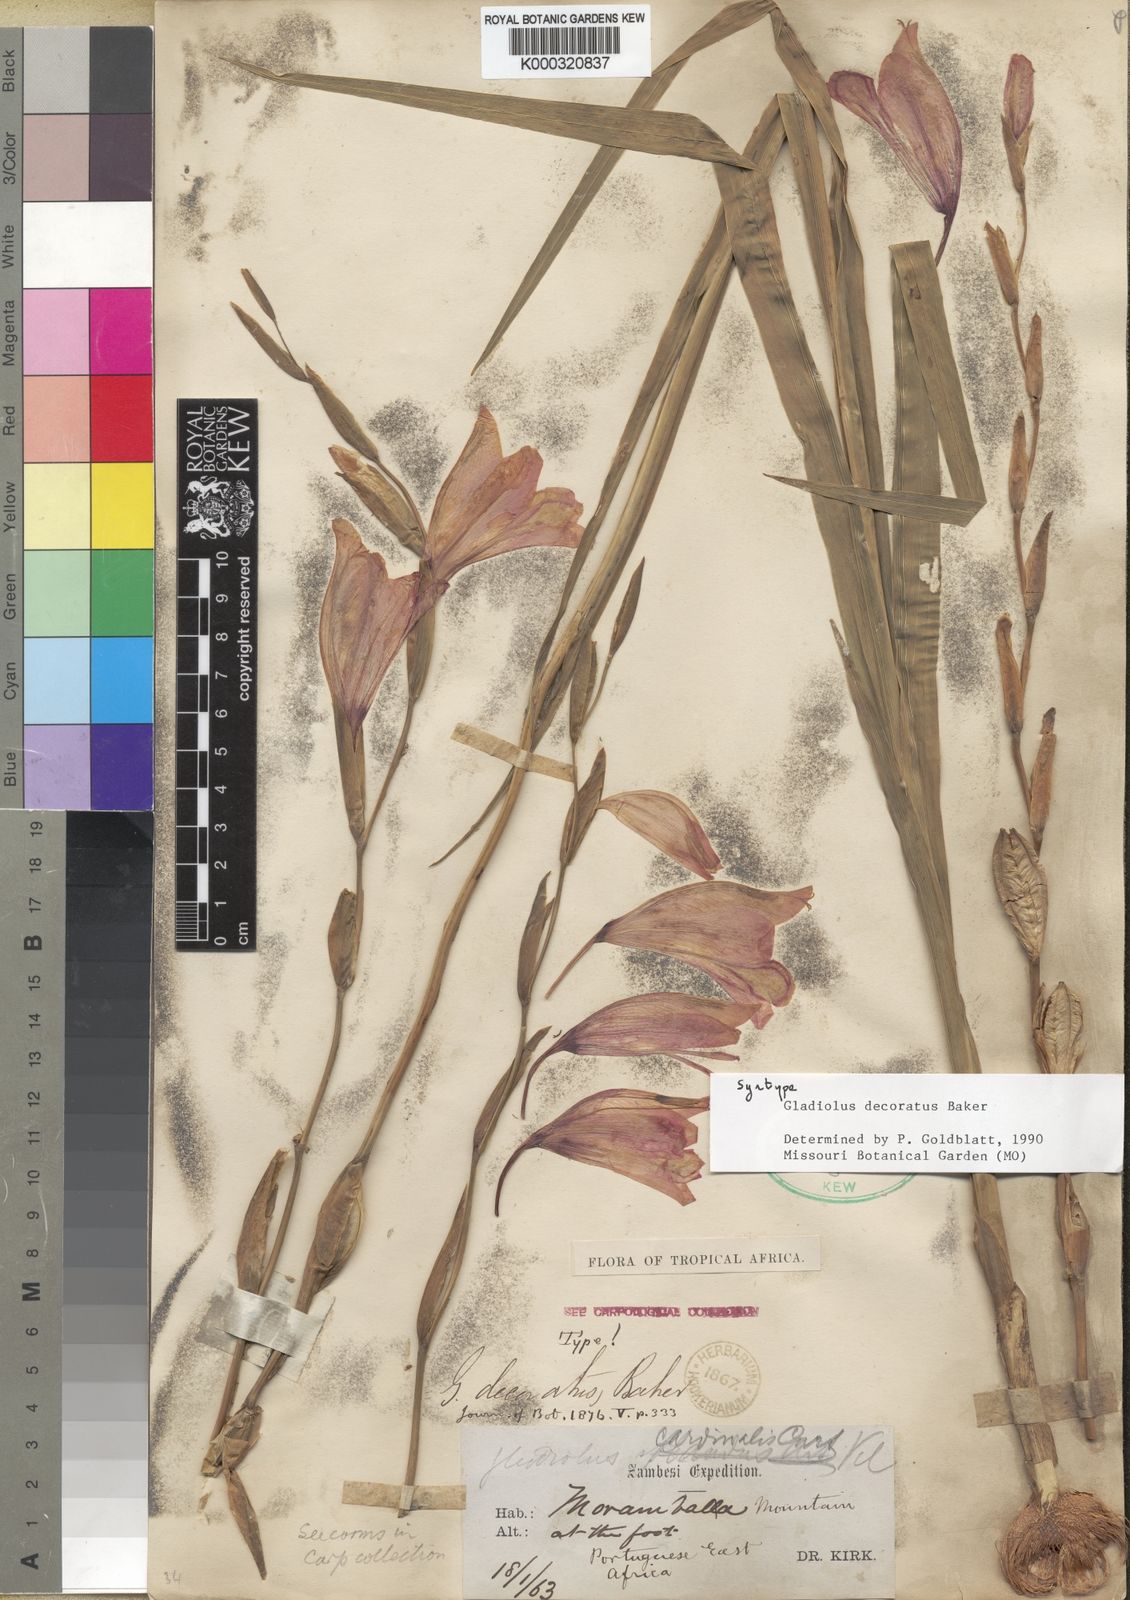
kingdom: Plantae
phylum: Tracheophyta
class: Liliopsida
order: Asparagales
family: Iridaceae
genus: Gladiolus
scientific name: Gladiolus decoratus
